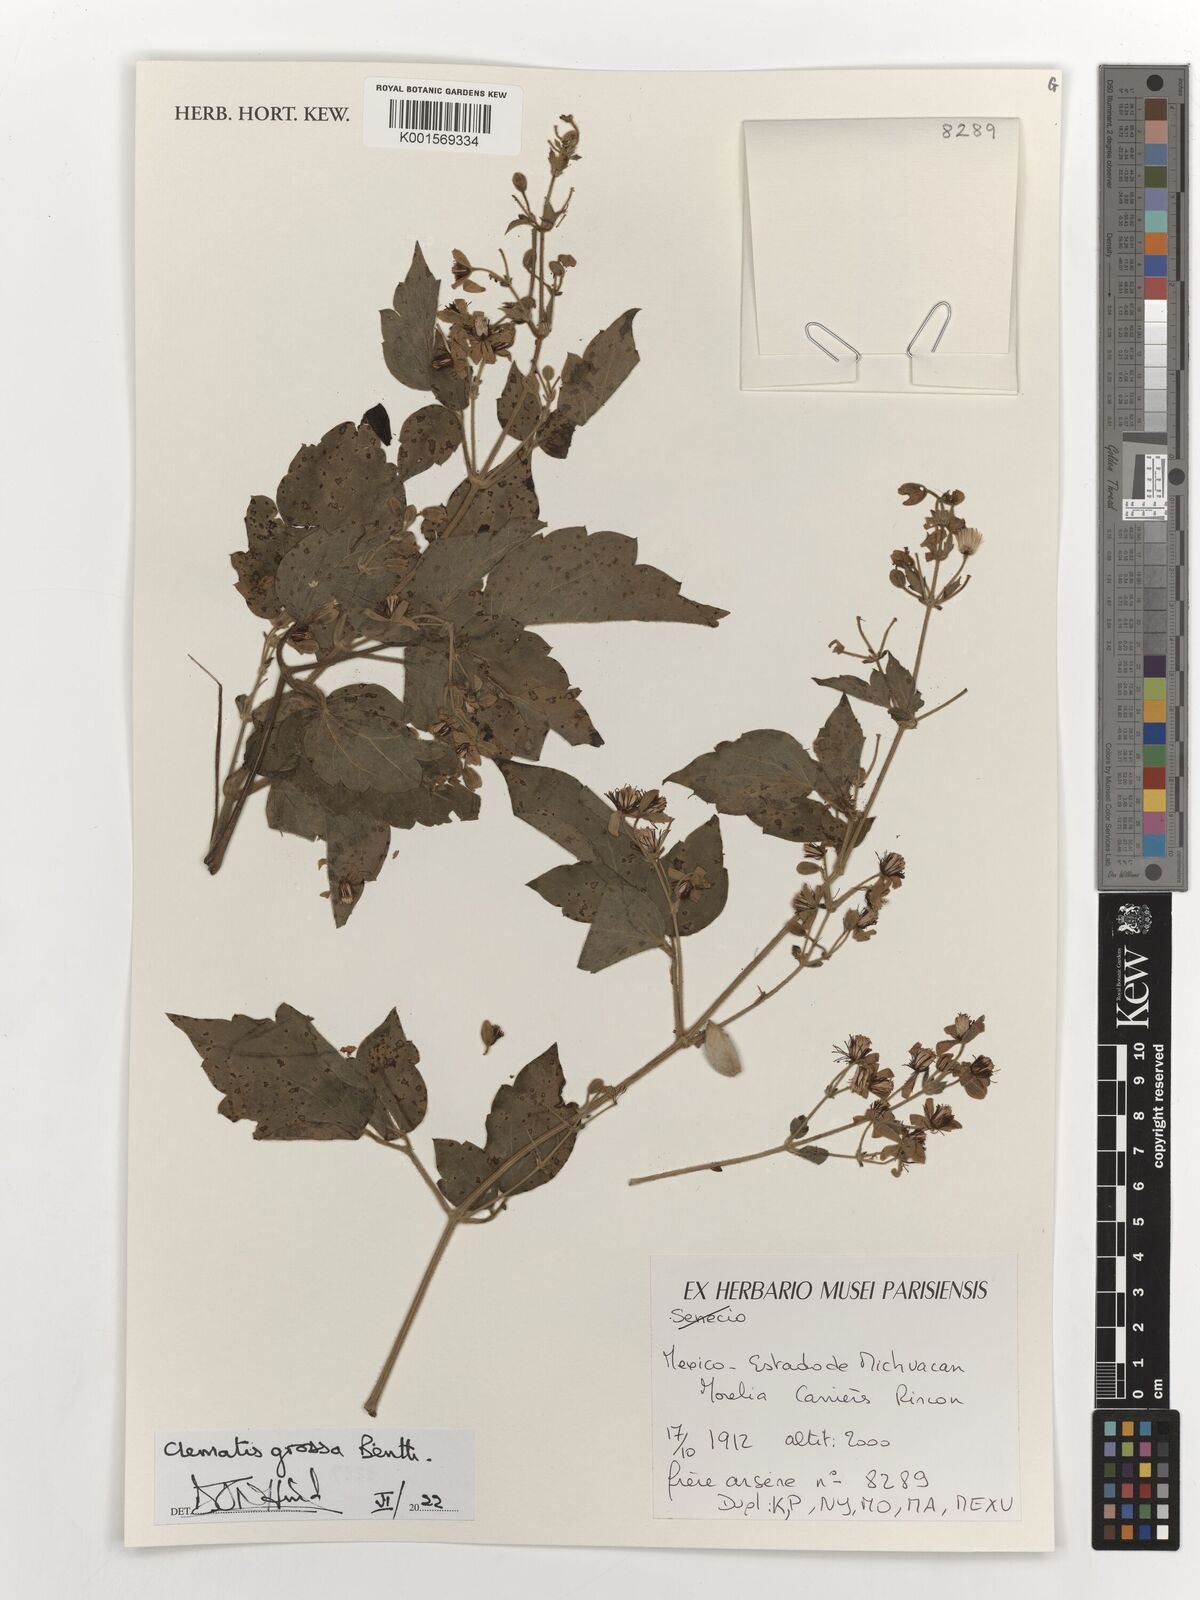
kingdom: Plantae
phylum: Tracheophyta
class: Magnoliopsida
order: Ranunculales
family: Ranunculaceae
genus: Clematis
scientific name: Clematis grossa
